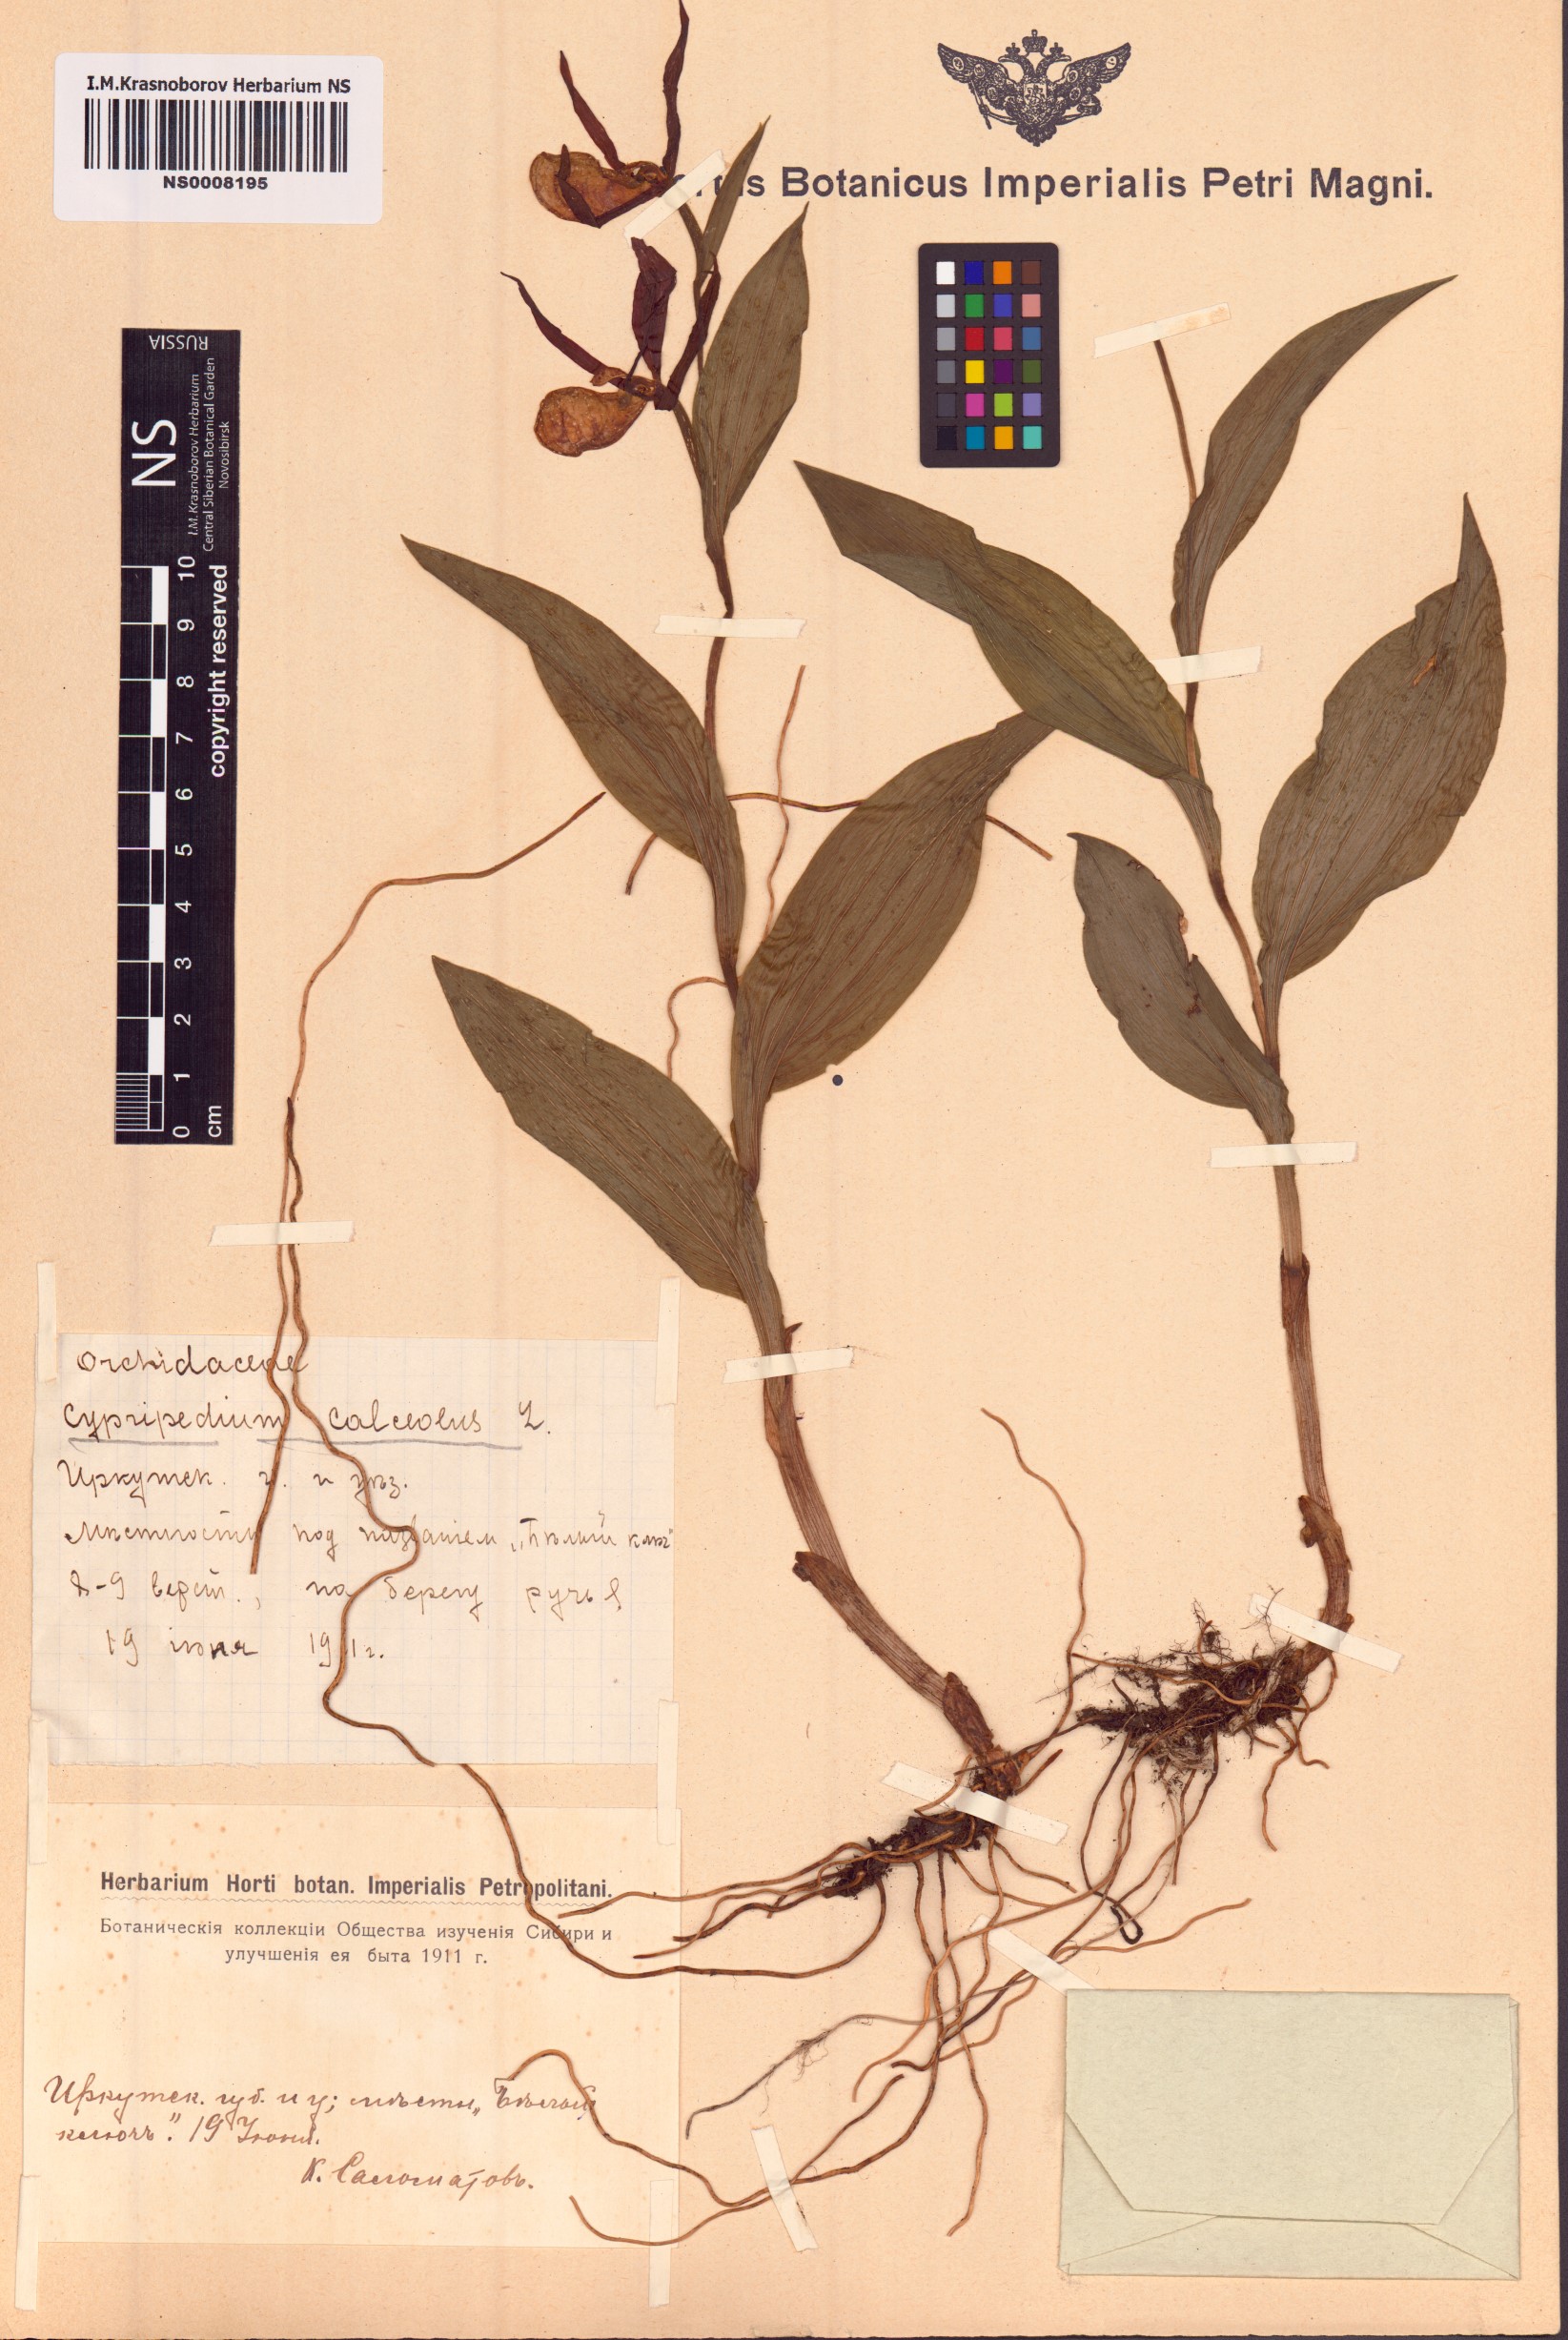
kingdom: Plantae
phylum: Tracheophyta
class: Liliopsida
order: Asparagales
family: Orchidaceae
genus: Cypripedium
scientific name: Cypripedium calceolus
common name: Lady's-slipper
